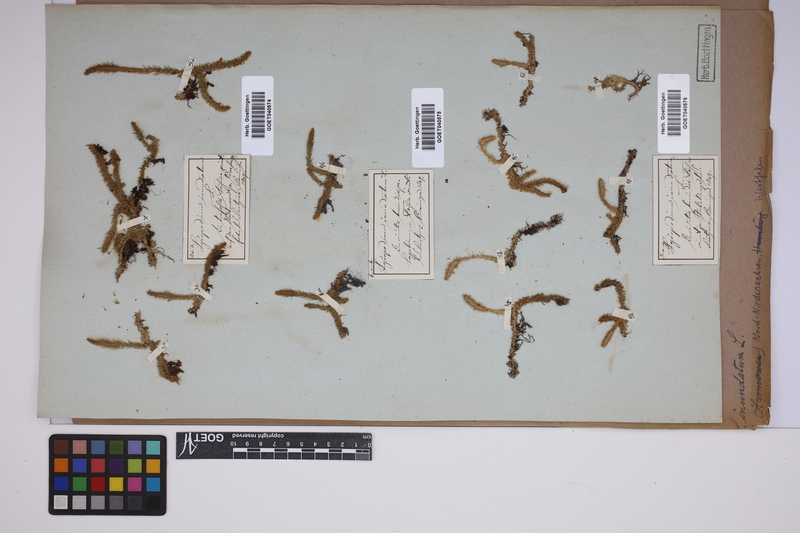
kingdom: Plantae
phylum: Tracheophyta
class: Lycopodiopsida
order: Lycopodiales
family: Lycopodiaceae
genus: Lycopodiella
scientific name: Lycopodiella inundata
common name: Marsh clubmoss
